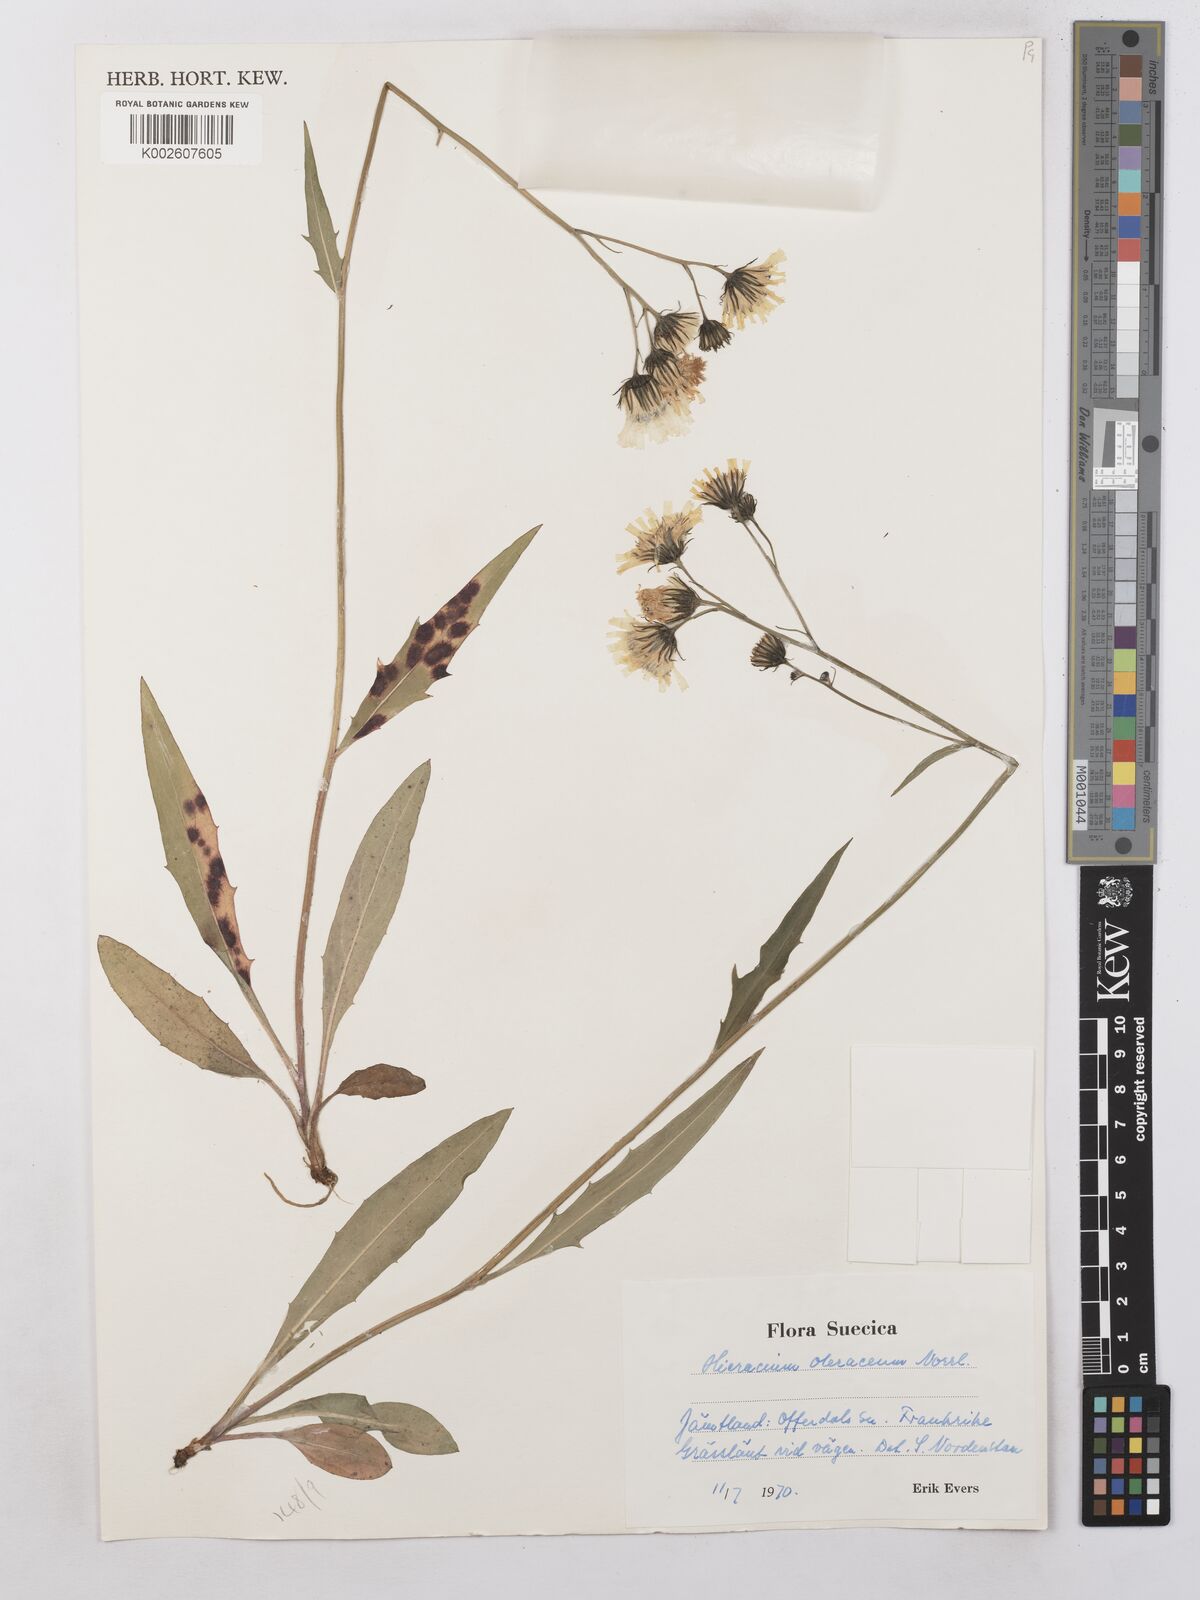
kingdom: Plantae
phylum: Tracheophyta
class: Magnoliopsida
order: Asterales
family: Asteraceae
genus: Hieracium
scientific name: Hieracium subramosum
